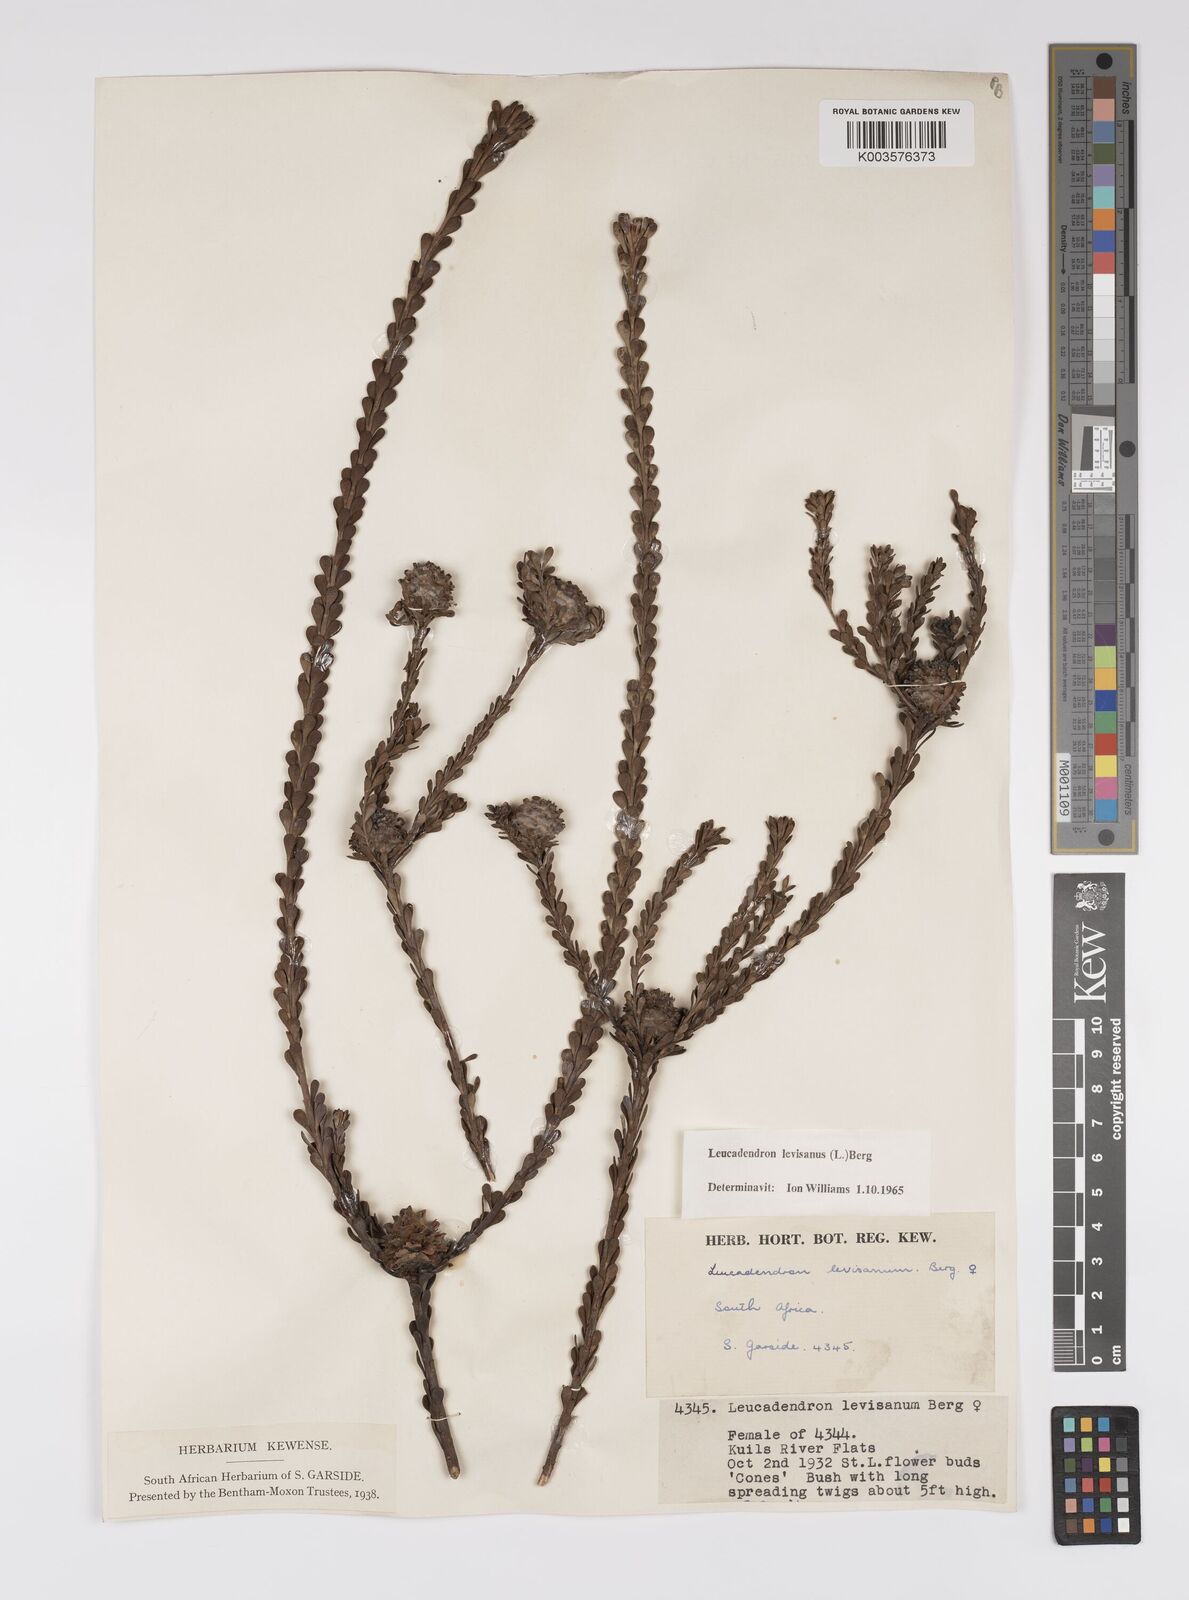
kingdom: Plantae
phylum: Tracheophyta
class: Magnoliopsida
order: Proteales
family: Proteaceae
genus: Leucadendron
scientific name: Leucadendron levisanus
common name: Cape flats conebush
